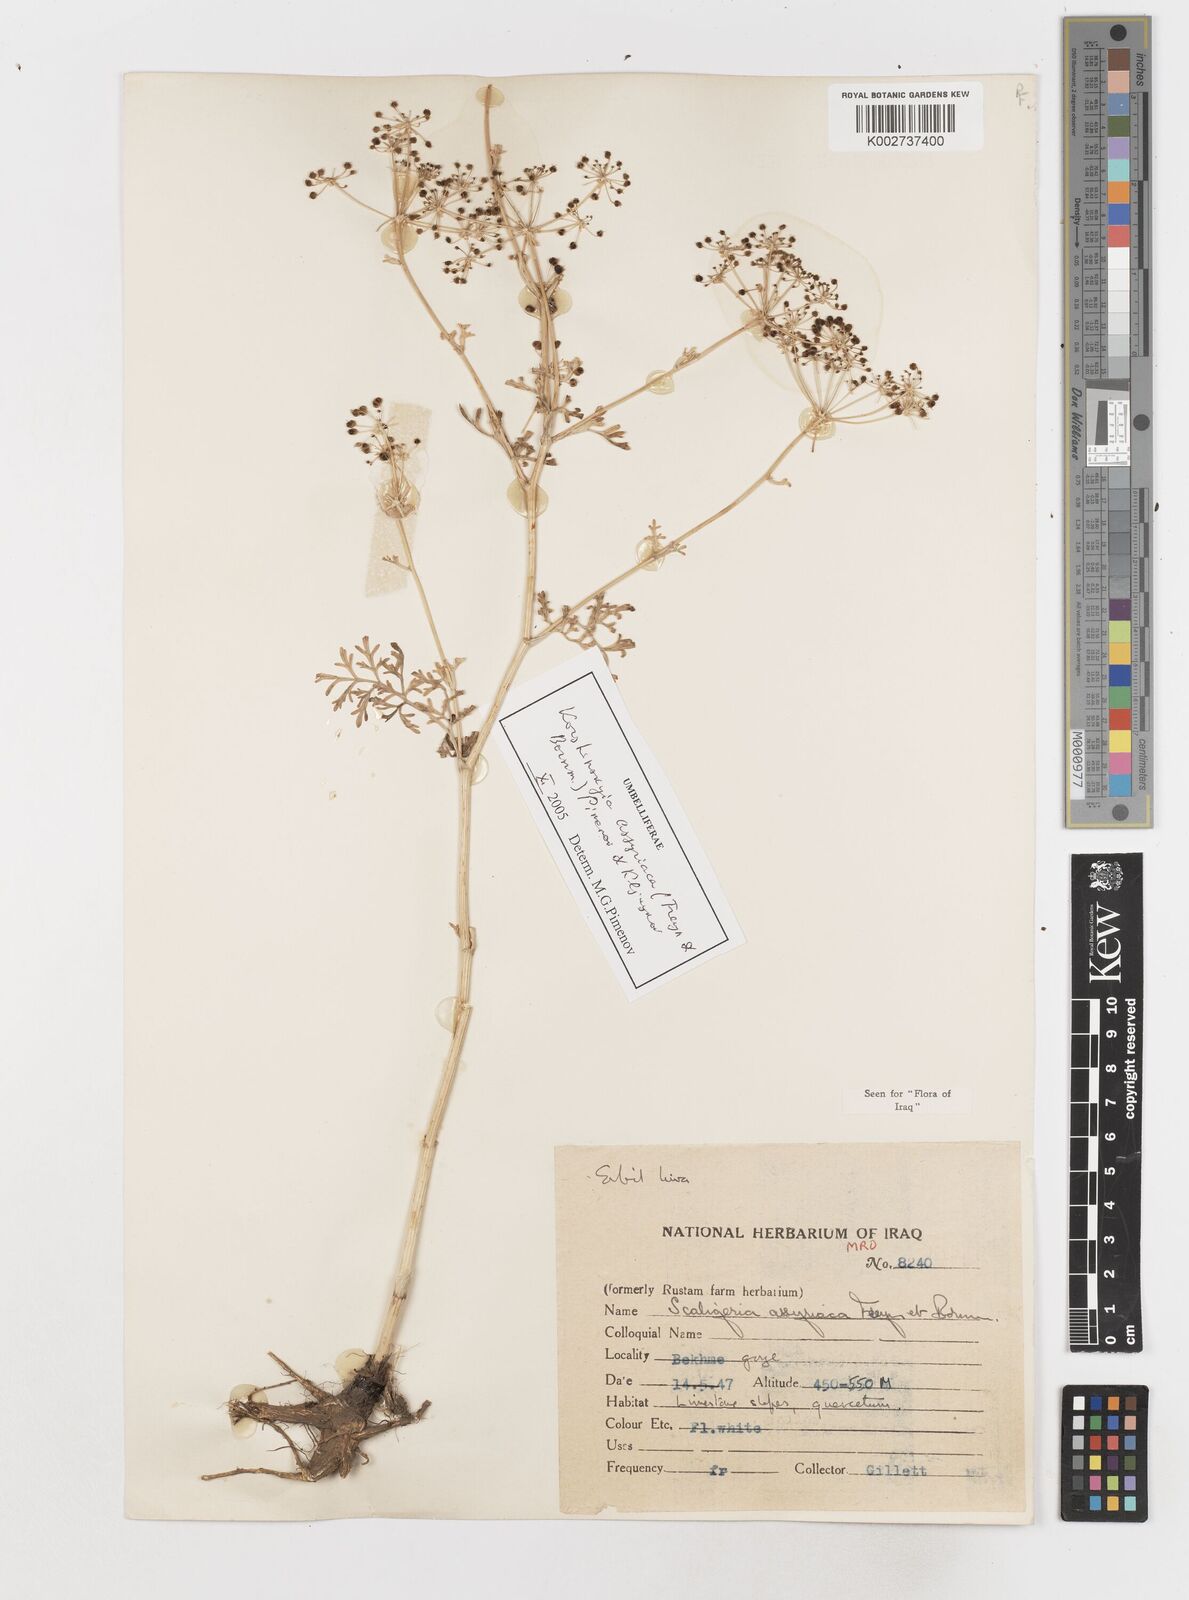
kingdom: Plantae
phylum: Tracheophyta
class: Magnoliopsida
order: Apiales
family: Apiaceae
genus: Korshinskia
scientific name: Korshinskia assyriaca
